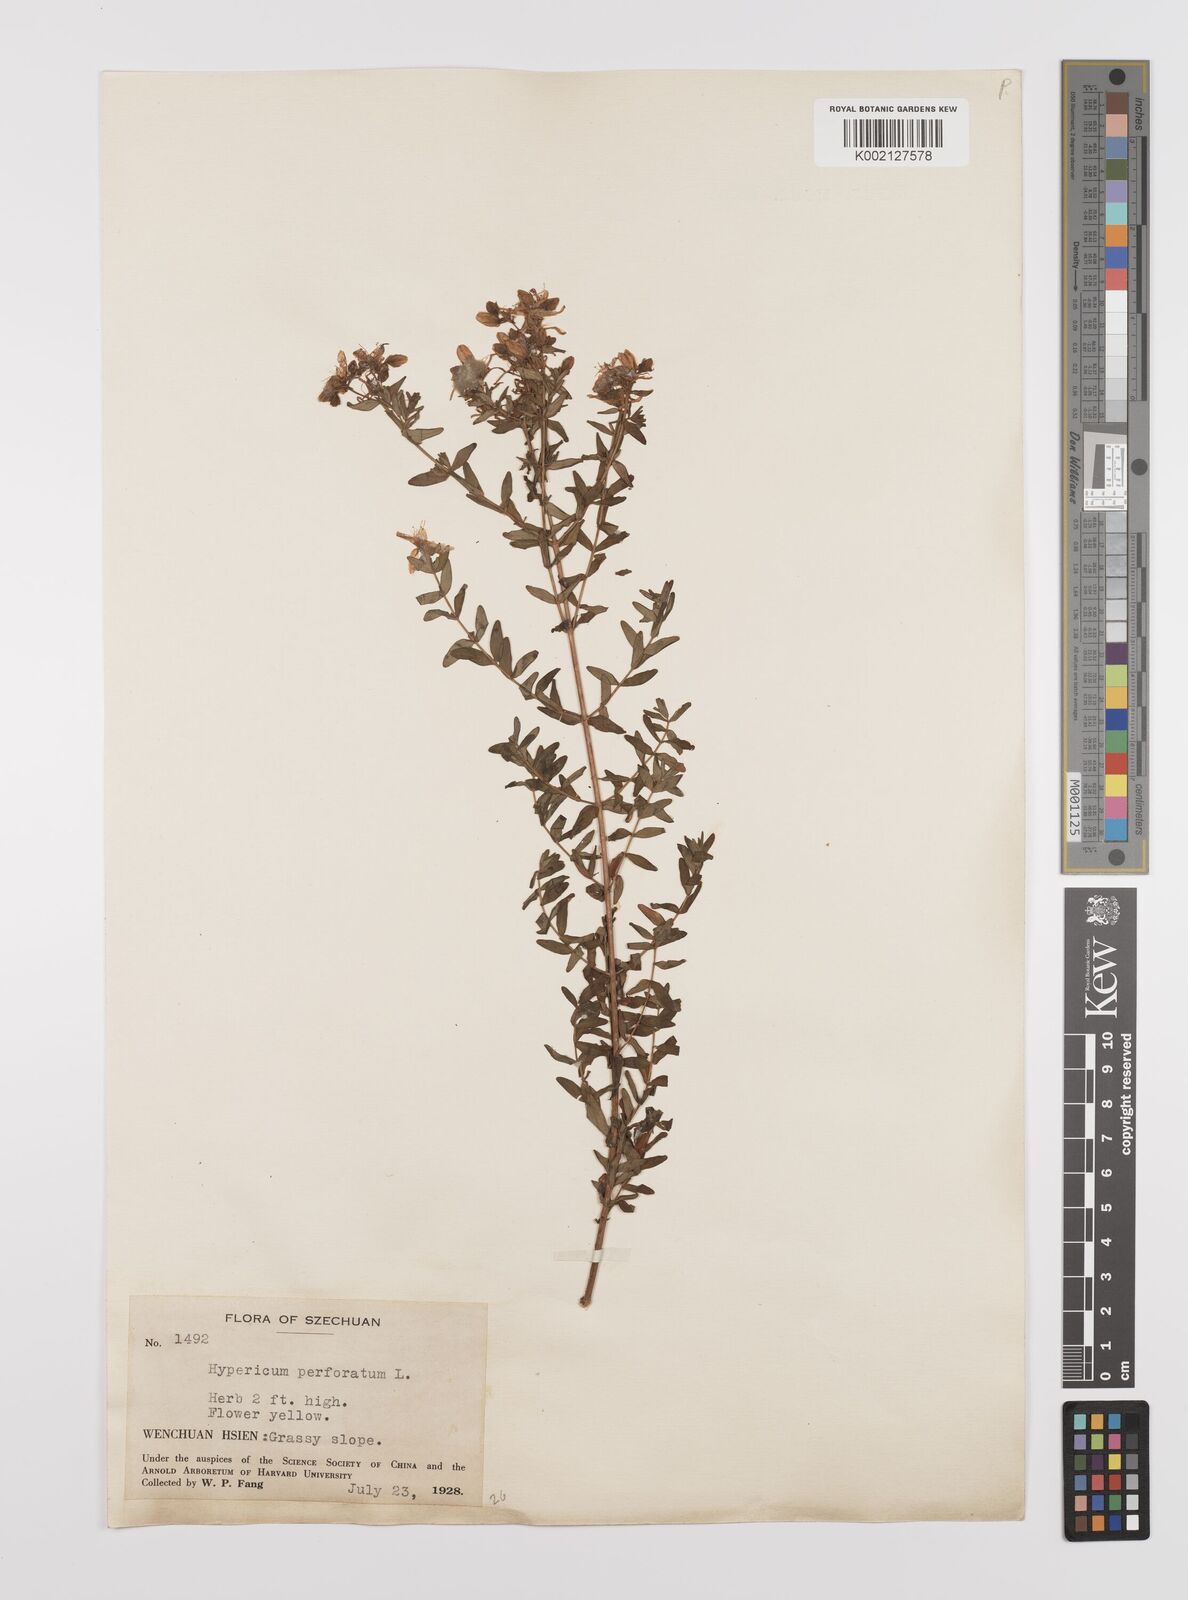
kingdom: Plantae
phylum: Tracheophyta
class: Magnoliopsida
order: Malpighiales
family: Hypericaceae
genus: Hypericum
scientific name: Hypericum perforatum
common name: Common st. johnswort
